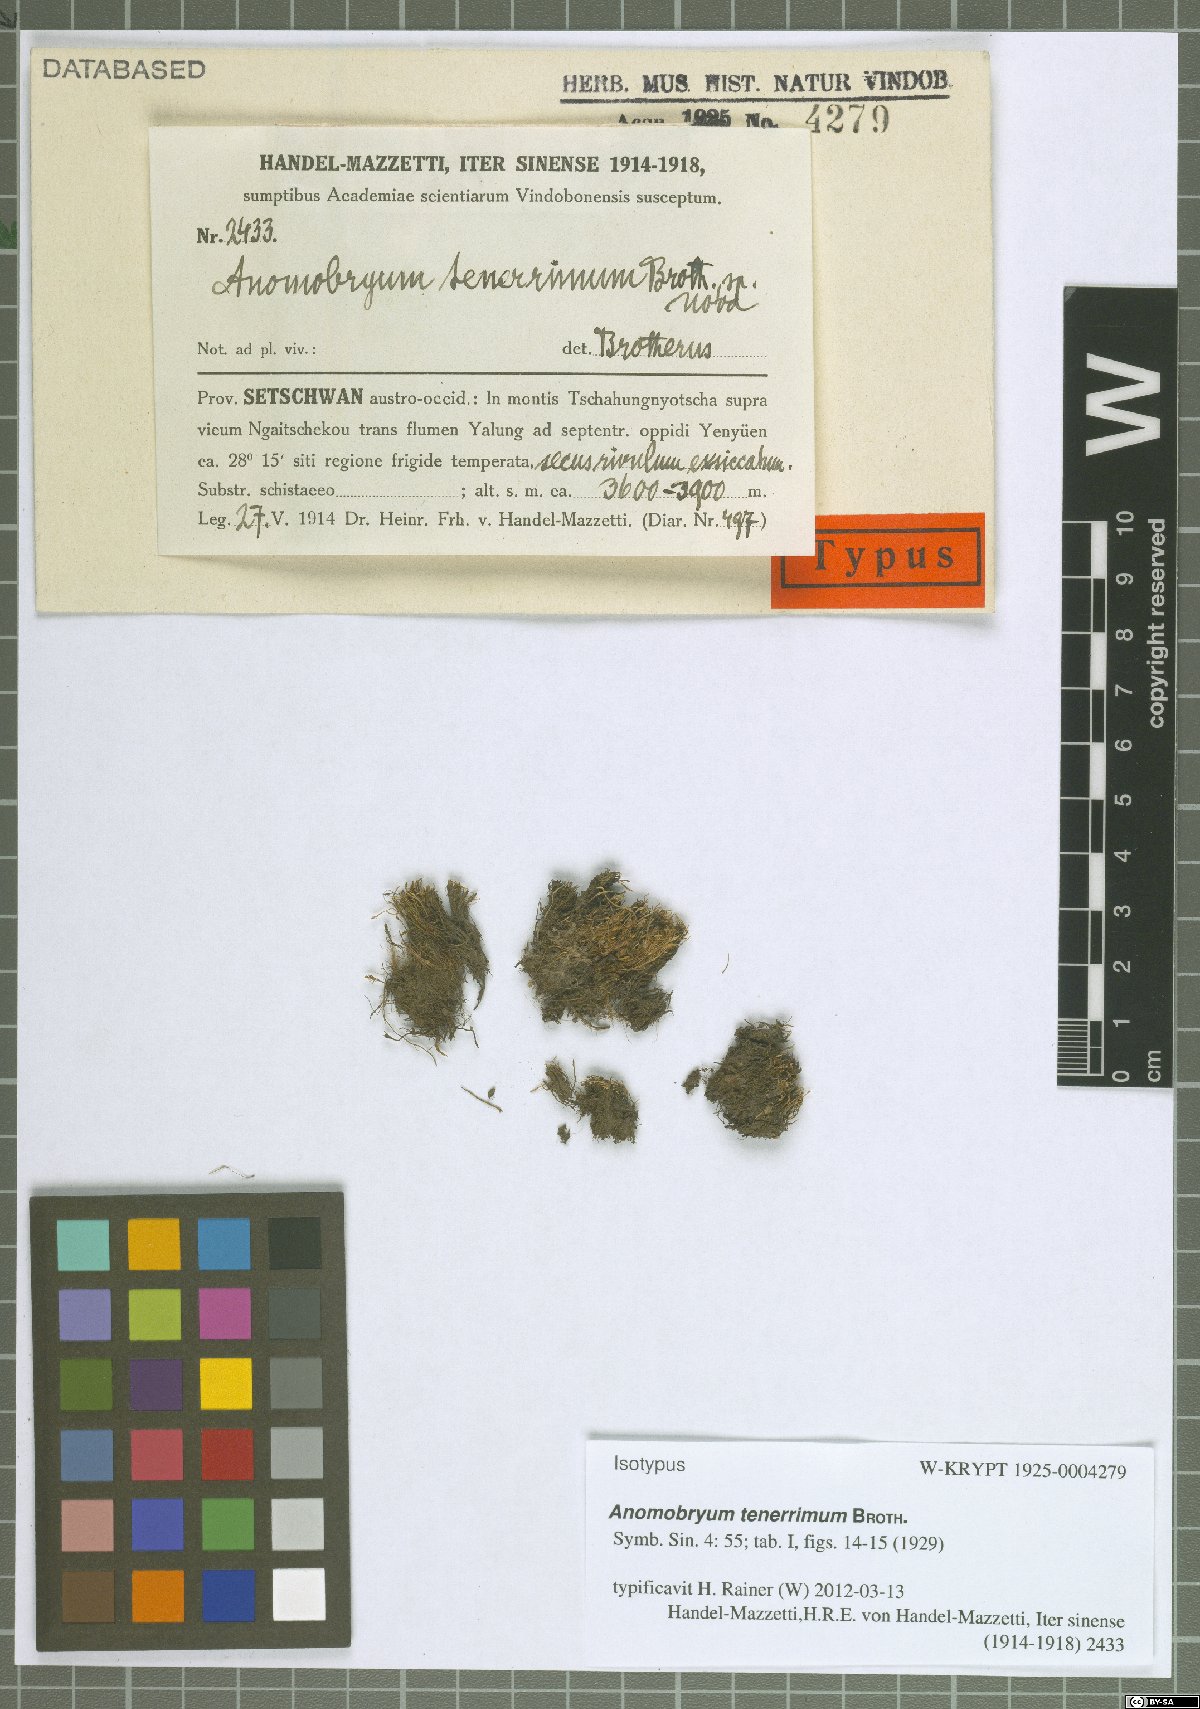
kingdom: Plantae
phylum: Bryophyta
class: Bryopsida
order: Bryales
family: Bryaceae
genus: Anomobryum
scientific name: Anomobryum concinnatum
